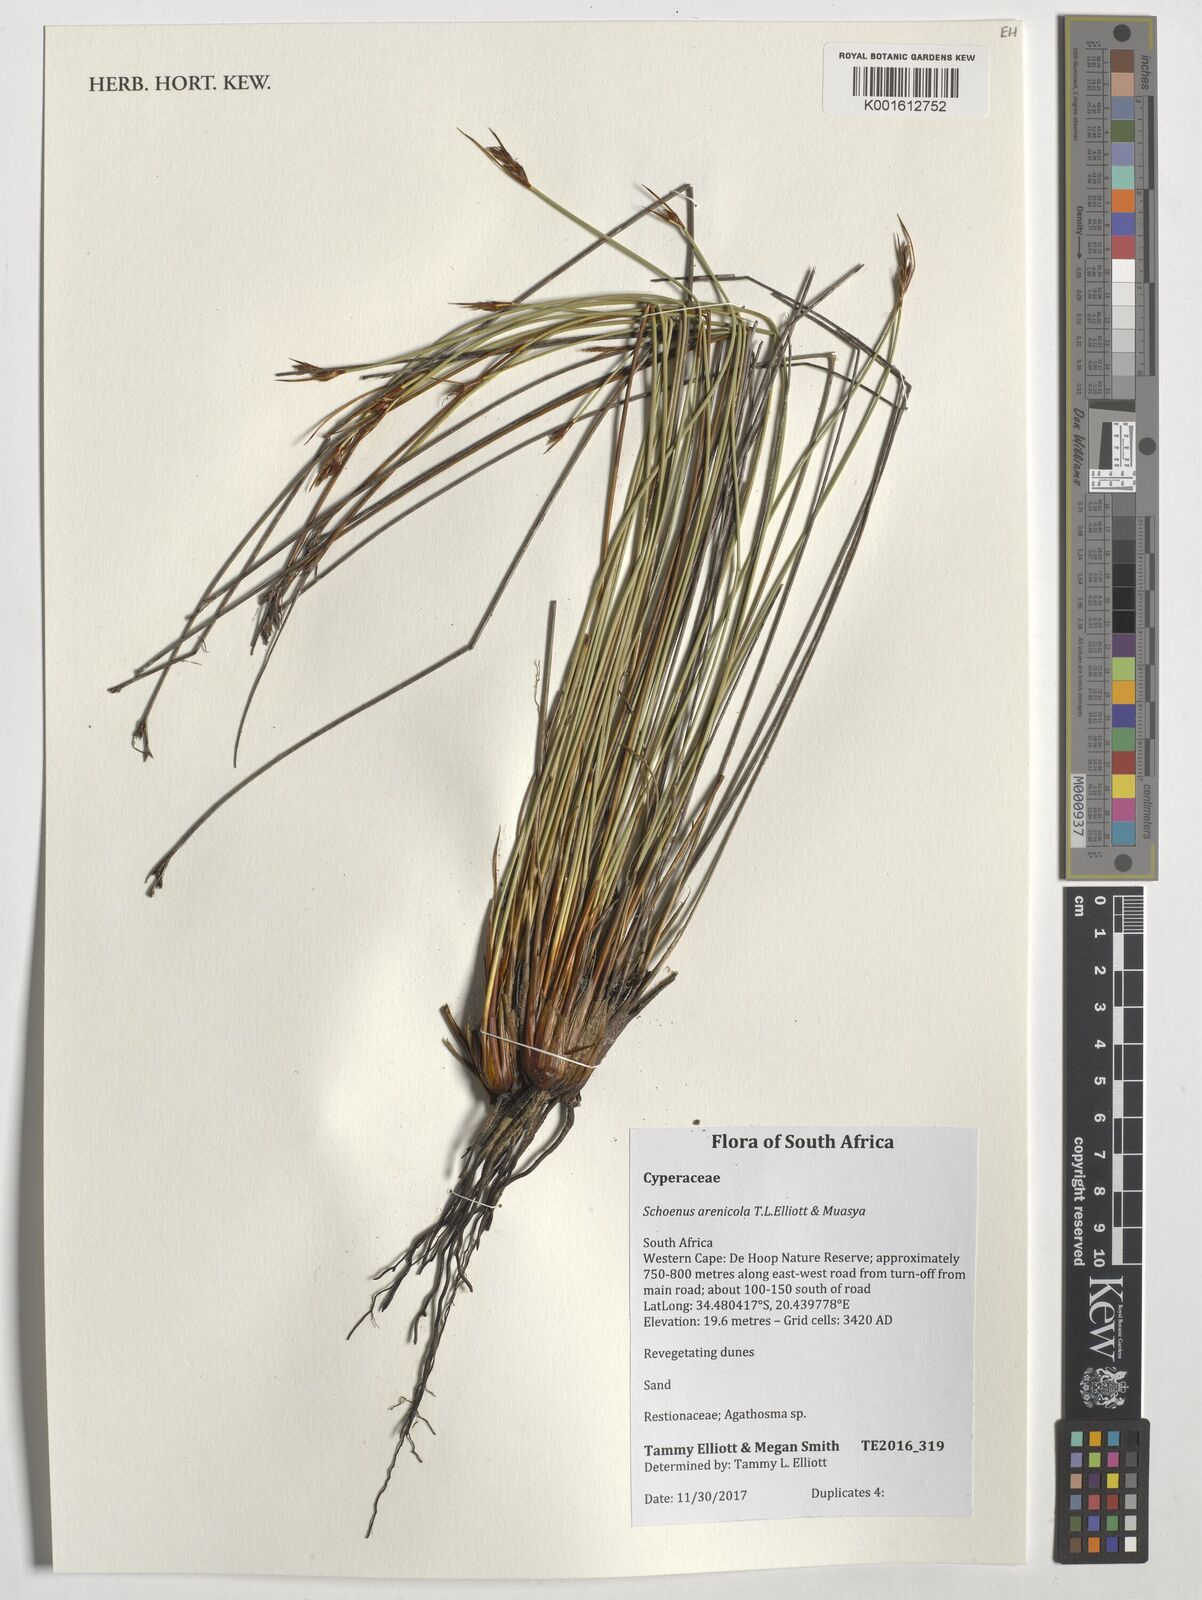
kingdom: Plantae
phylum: Tracheophyta
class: Liliopsida
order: Poales
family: Cyperaceae
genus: Schoenus
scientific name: Schoenus arenicola
